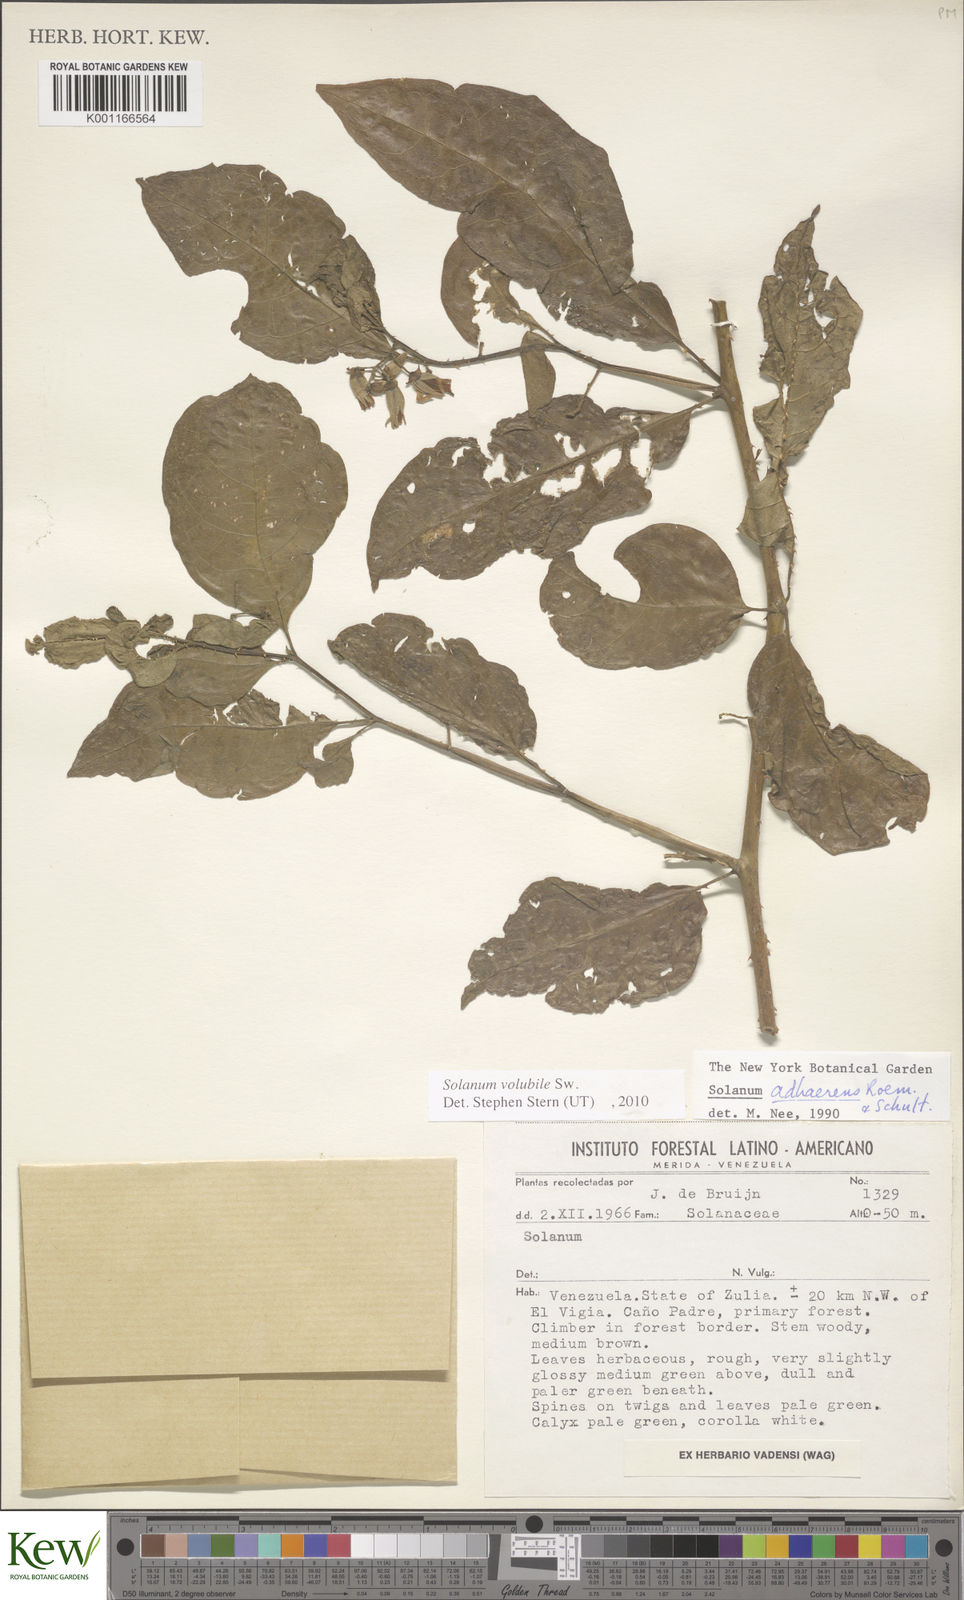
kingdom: Plantae
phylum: Tracheophyta
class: Magnoliopsida
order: Solanales
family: Solanaceae
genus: Solanum
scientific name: Solanum volubile
